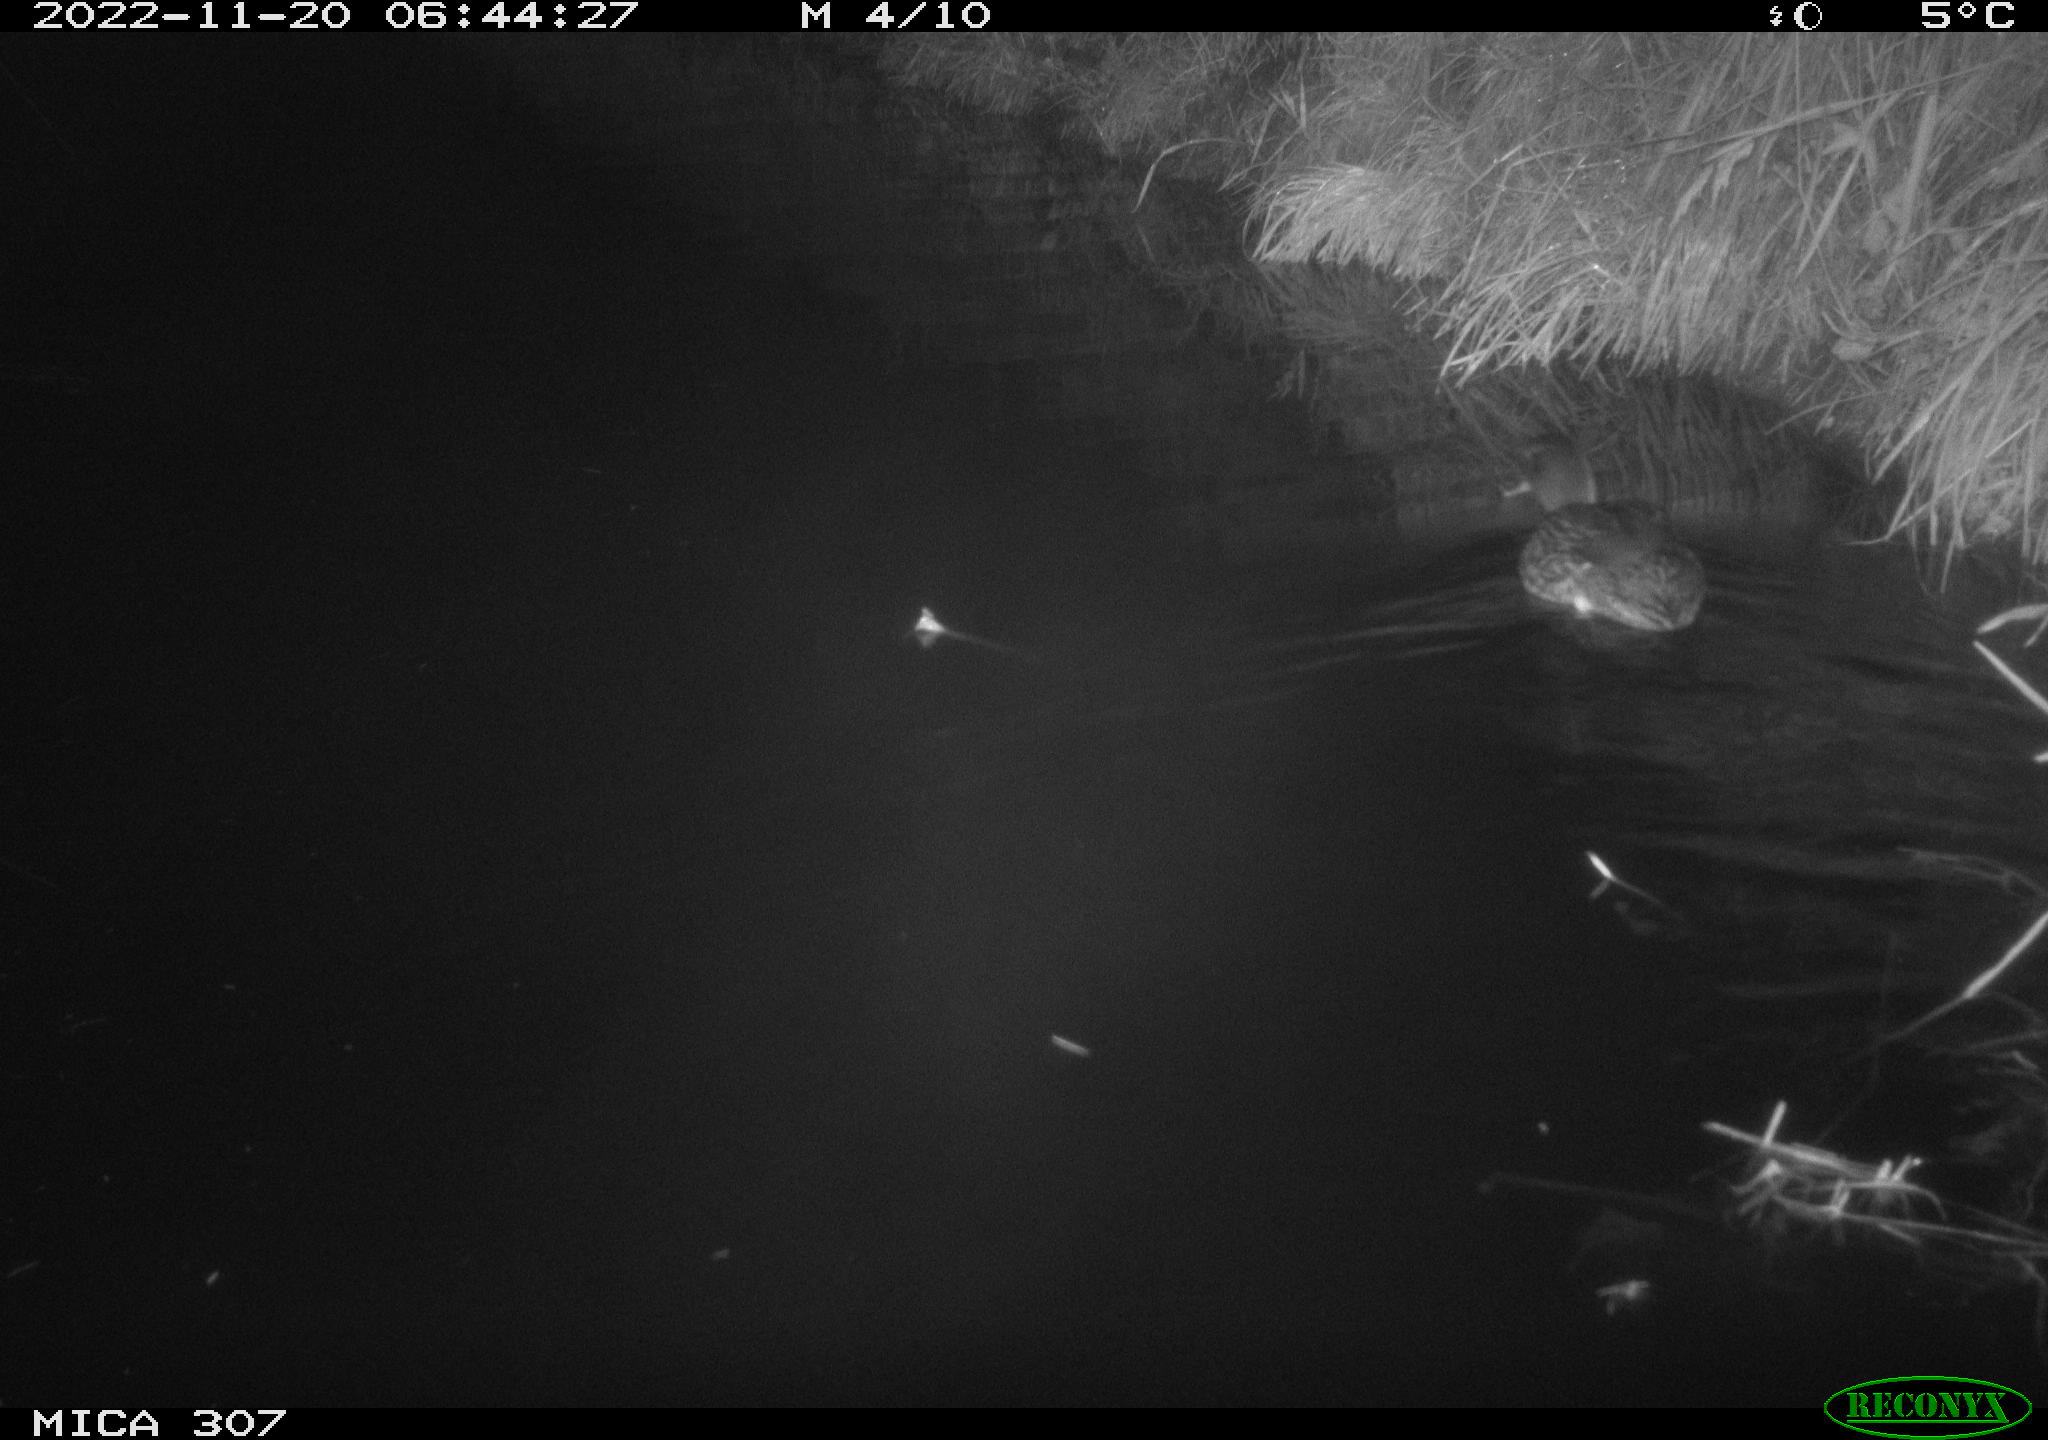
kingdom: Animalia
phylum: Chordata
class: Aves
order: Anseriformes
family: Anatidae
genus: Anas
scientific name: Anas
